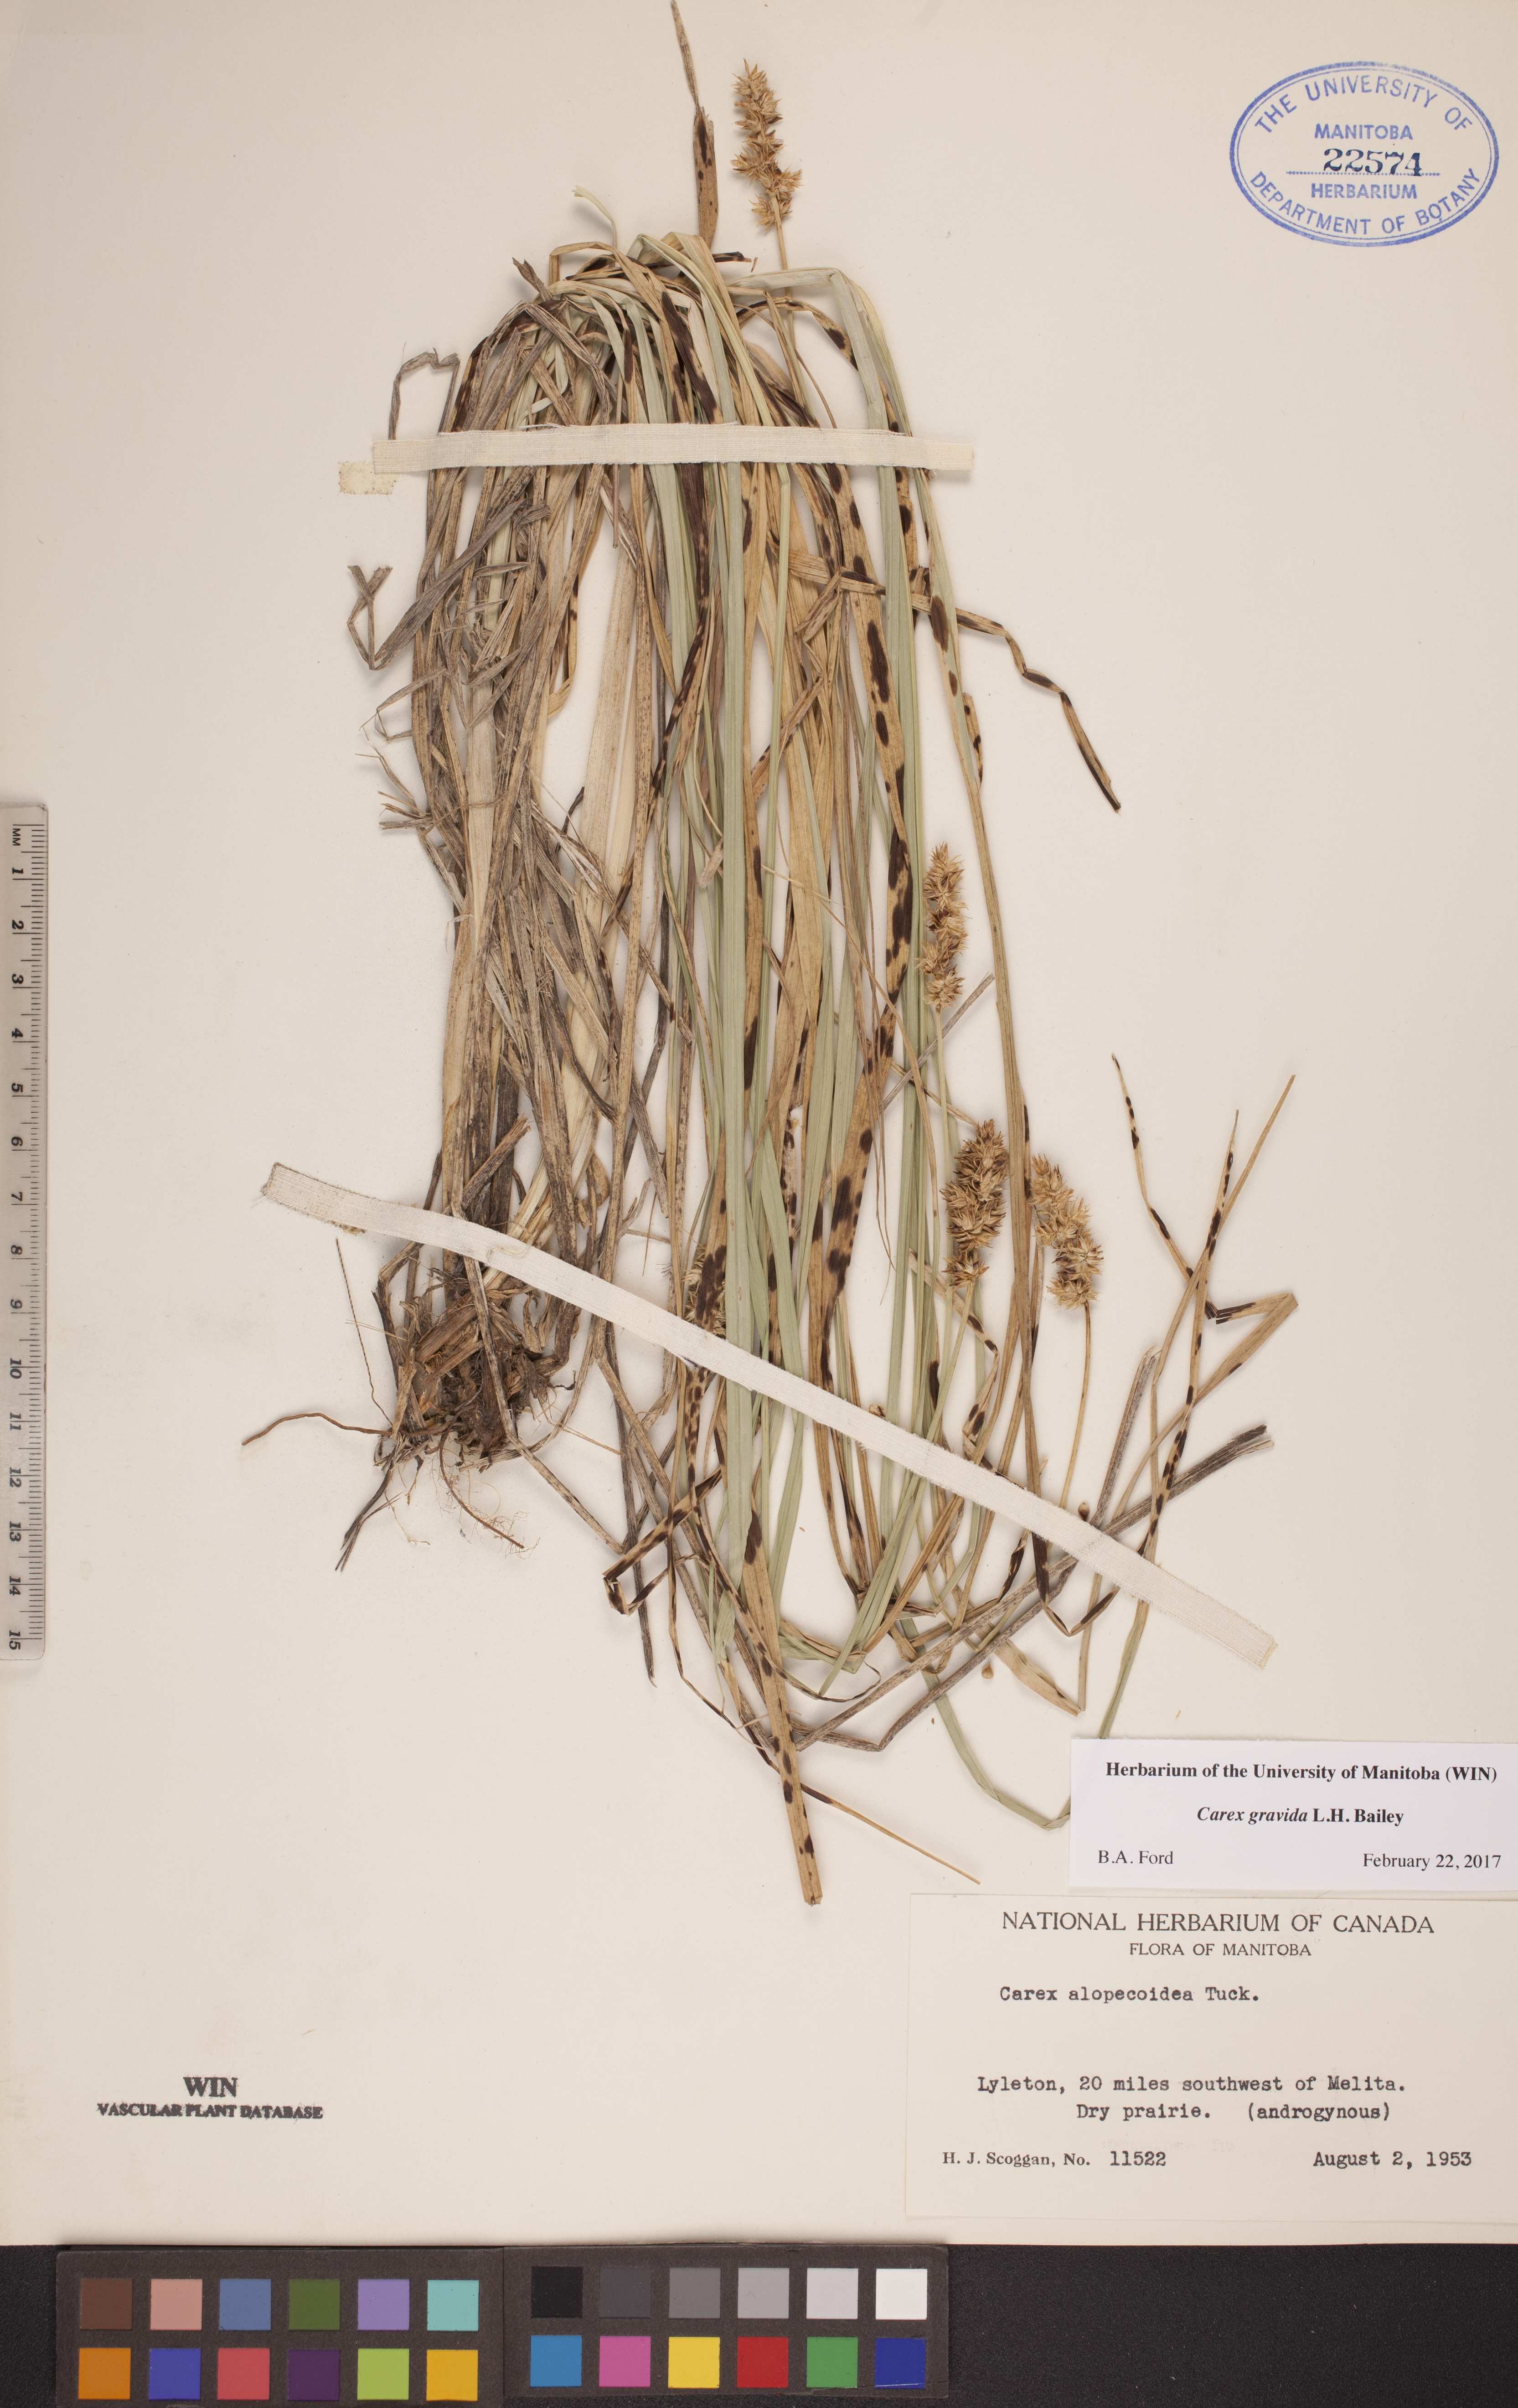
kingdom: Plantae
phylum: Tracheophyta
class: Liliopsida
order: Poales
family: Cyperaceae
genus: Carex
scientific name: Carex gravida
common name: Heavy sedge
